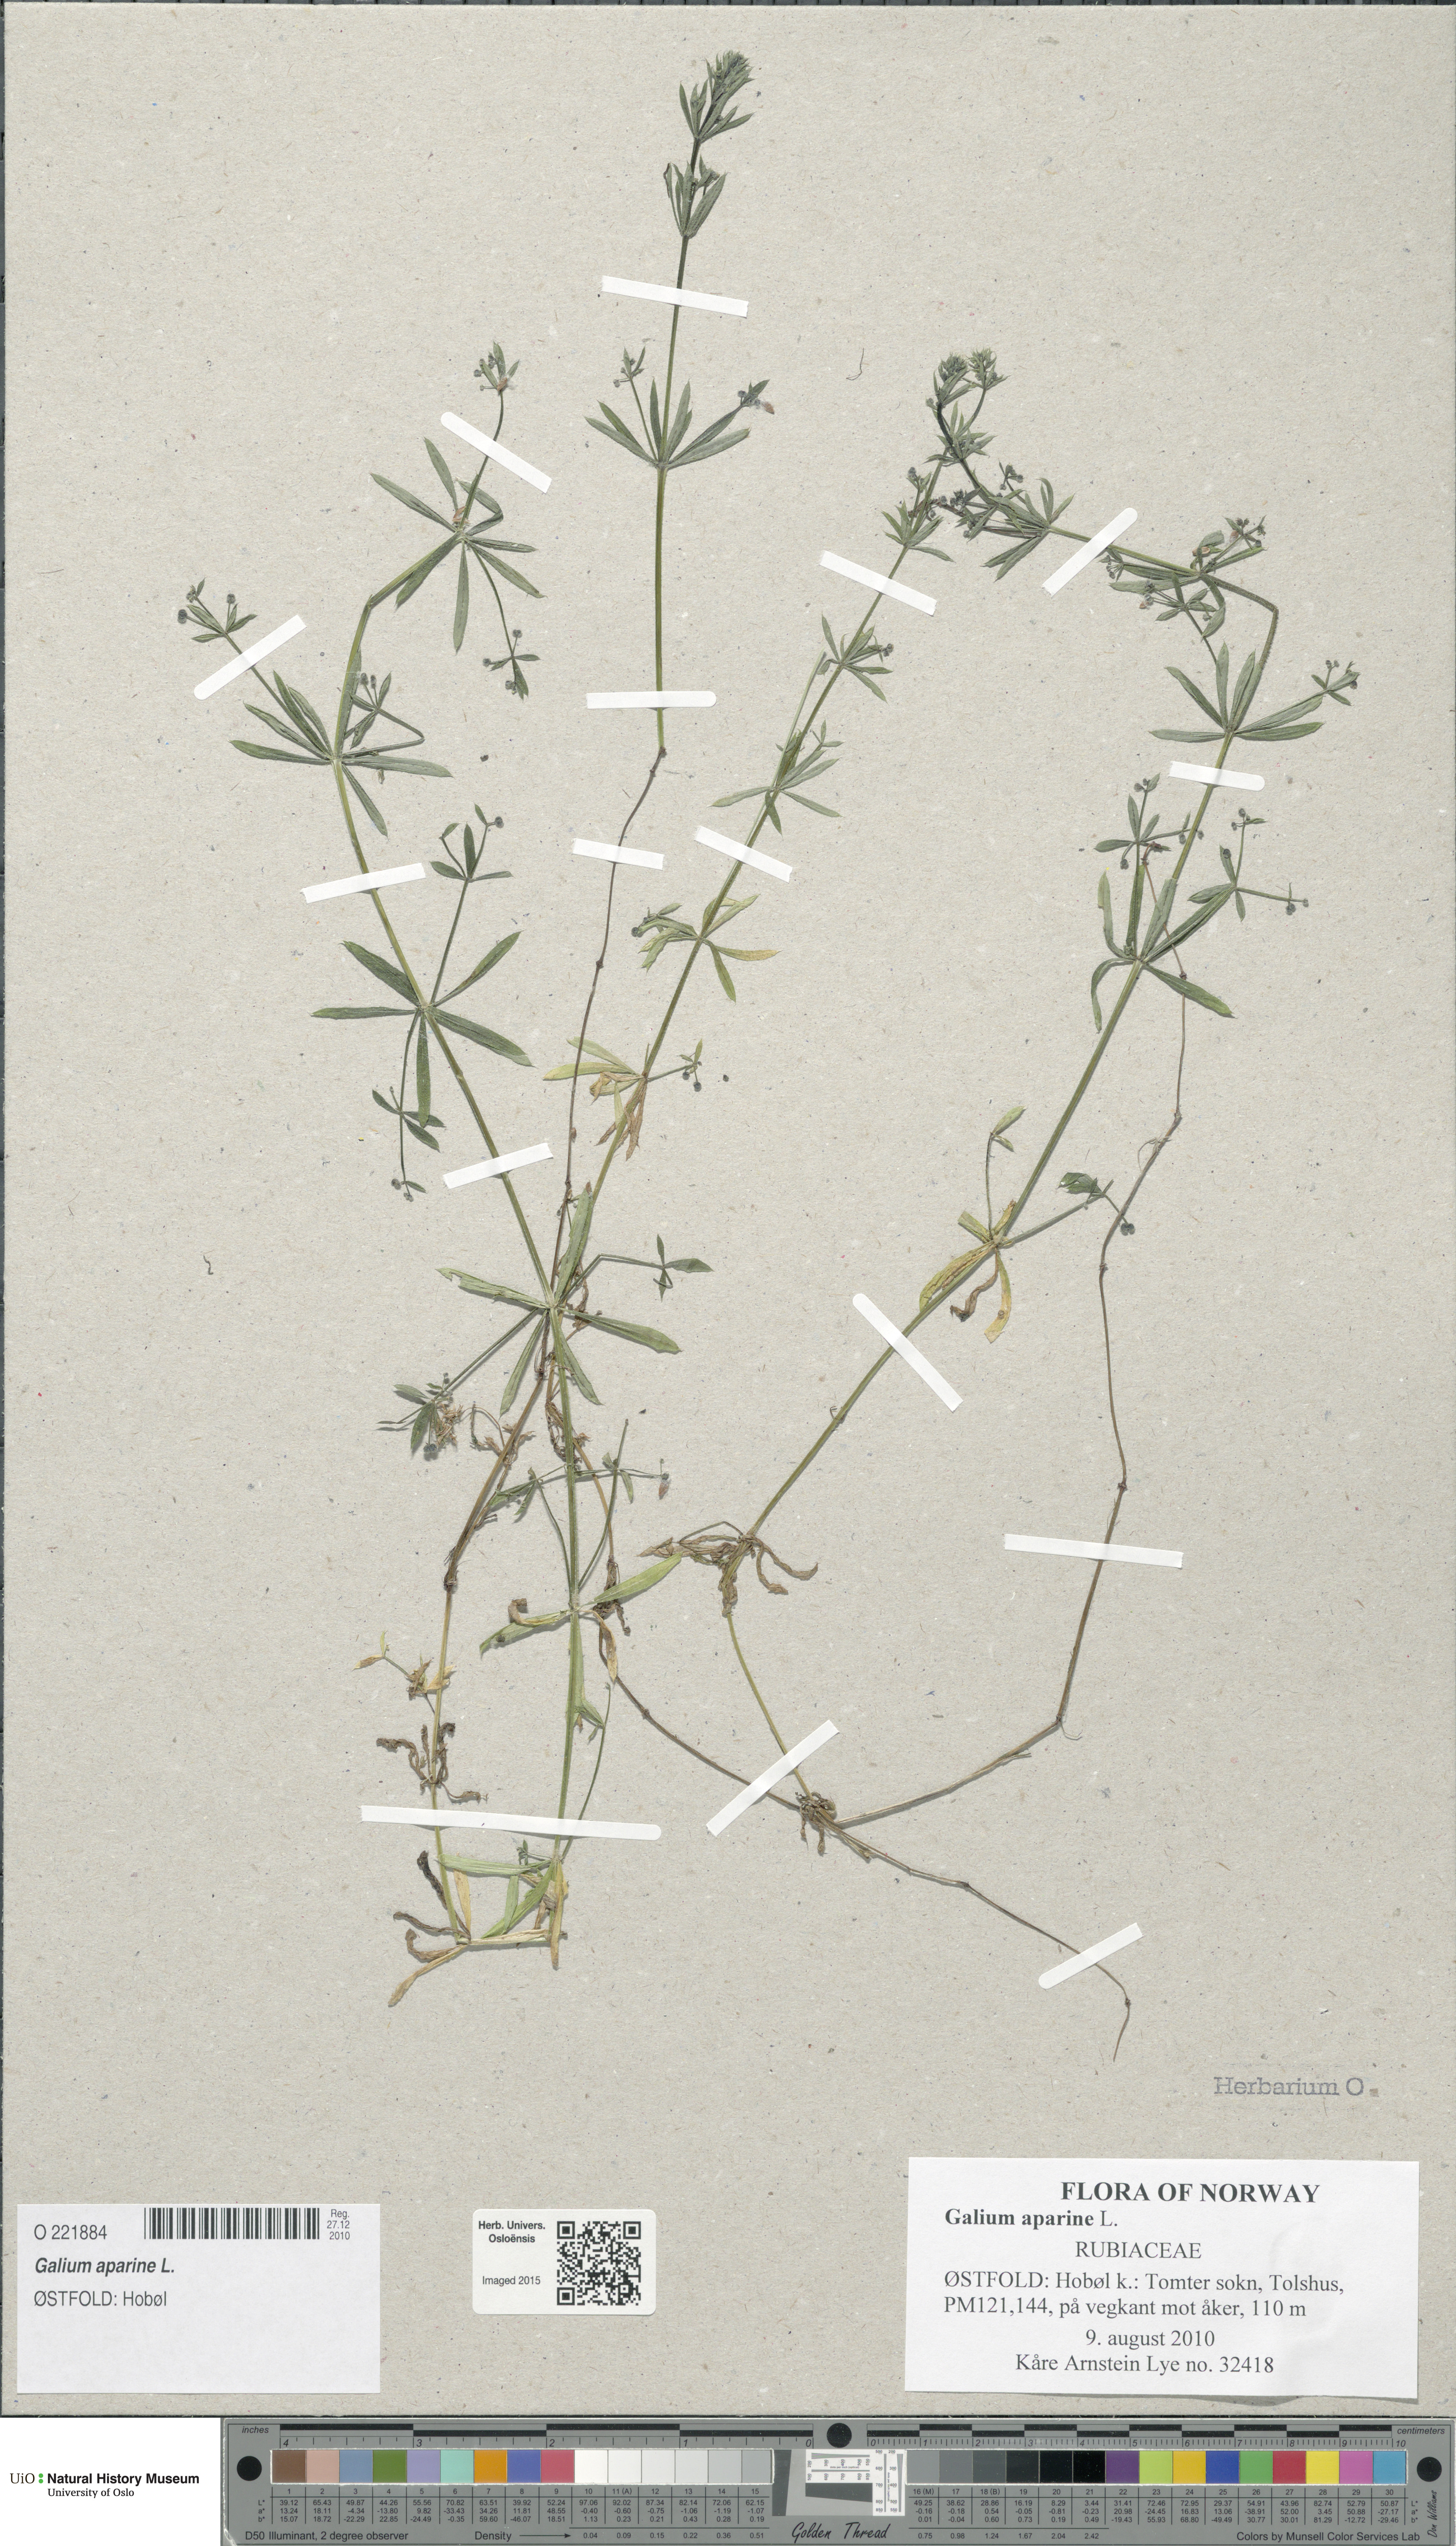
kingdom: Plantae
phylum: Tracheophyta
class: Magnoliopsida
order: Gentianales
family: Rubiaceae
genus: Galium
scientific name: Galium aparine
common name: Cleavers
